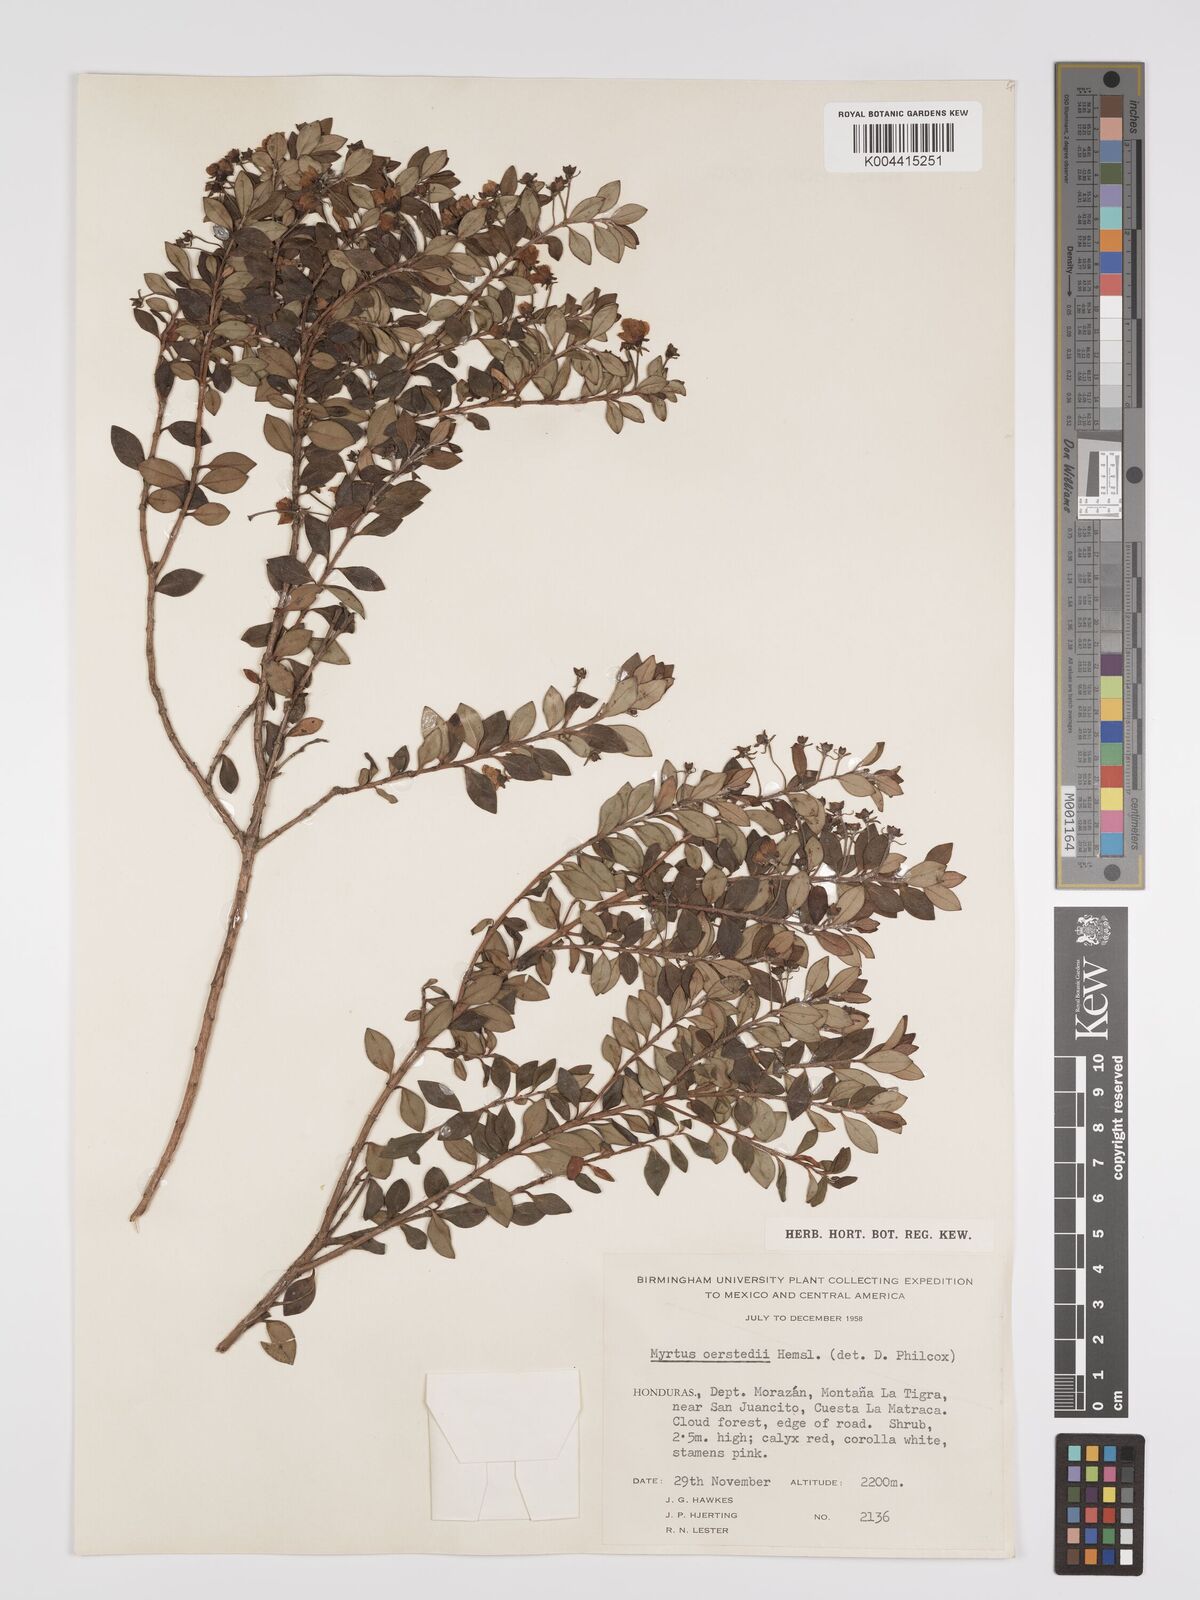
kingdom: Plantae
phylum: Tracheophyta
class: Magnoliopsida
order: Myrtales
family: Myrtaceae
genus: Ugni
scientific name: Ugni myricoides
